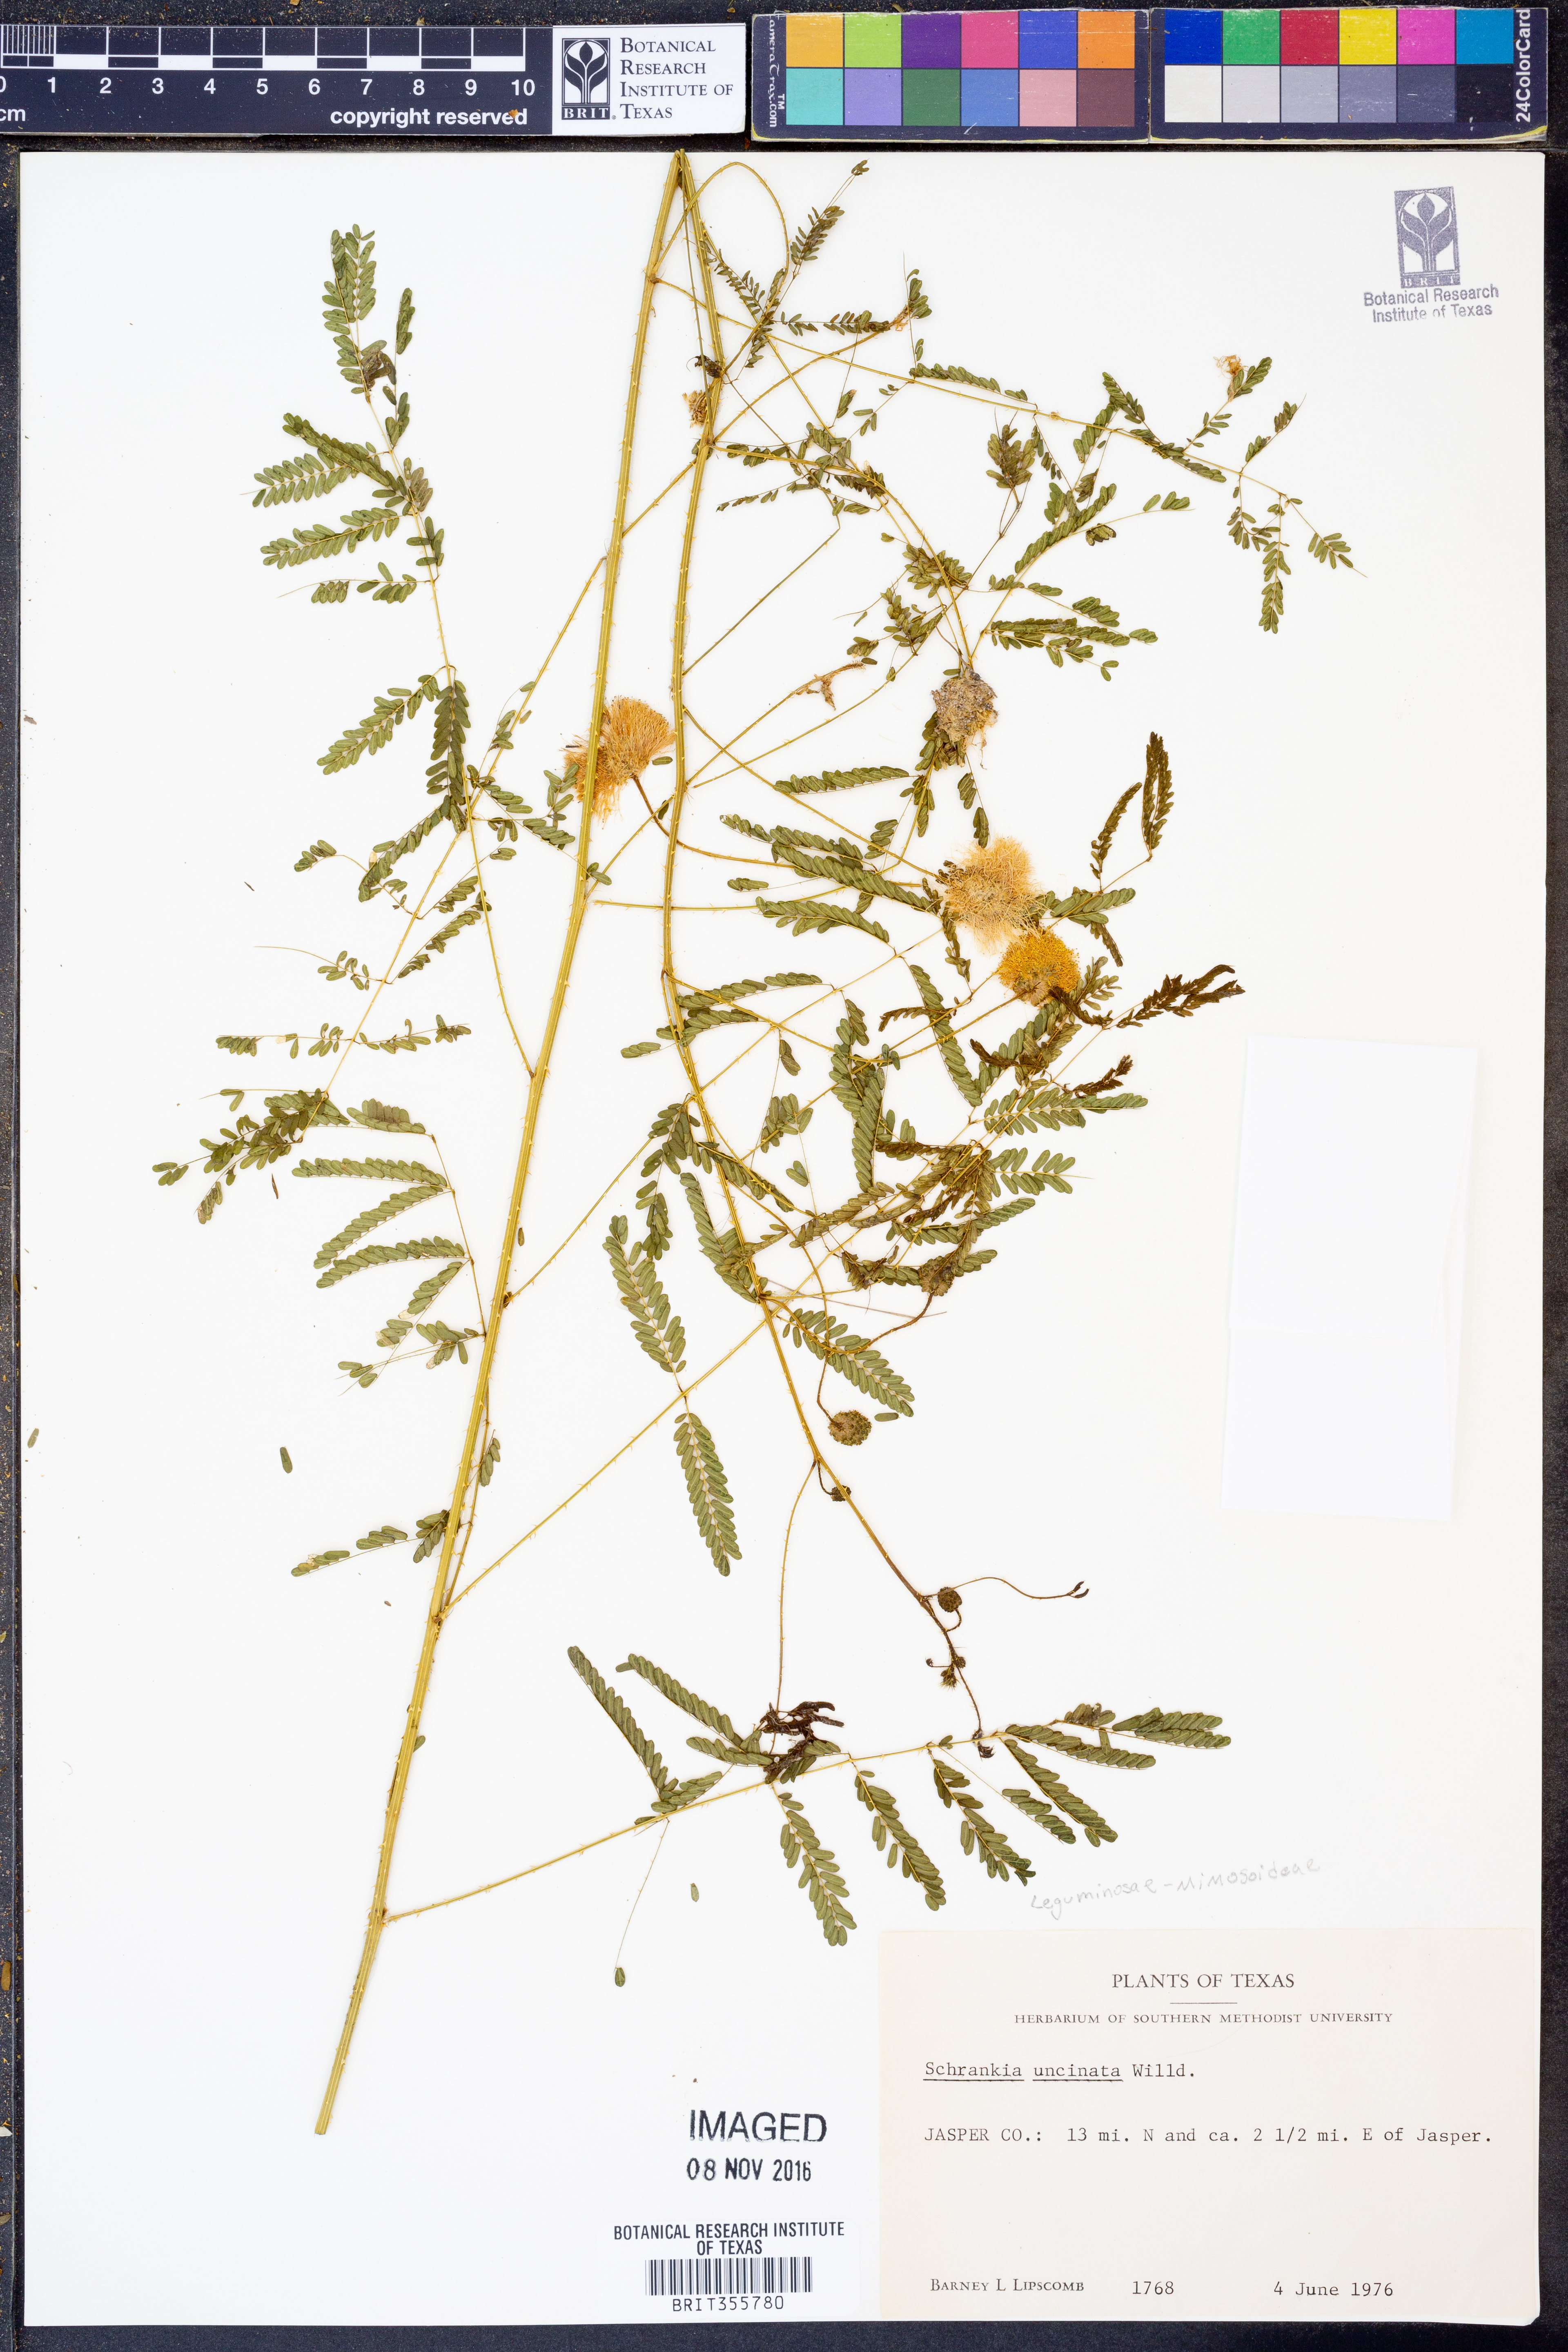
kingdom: Plantae
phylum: Tracheophyta
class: Magnoliopsida
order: Fabales
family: Fabaceae
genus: Mimosa
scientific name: Mimosa quadrivalvis
